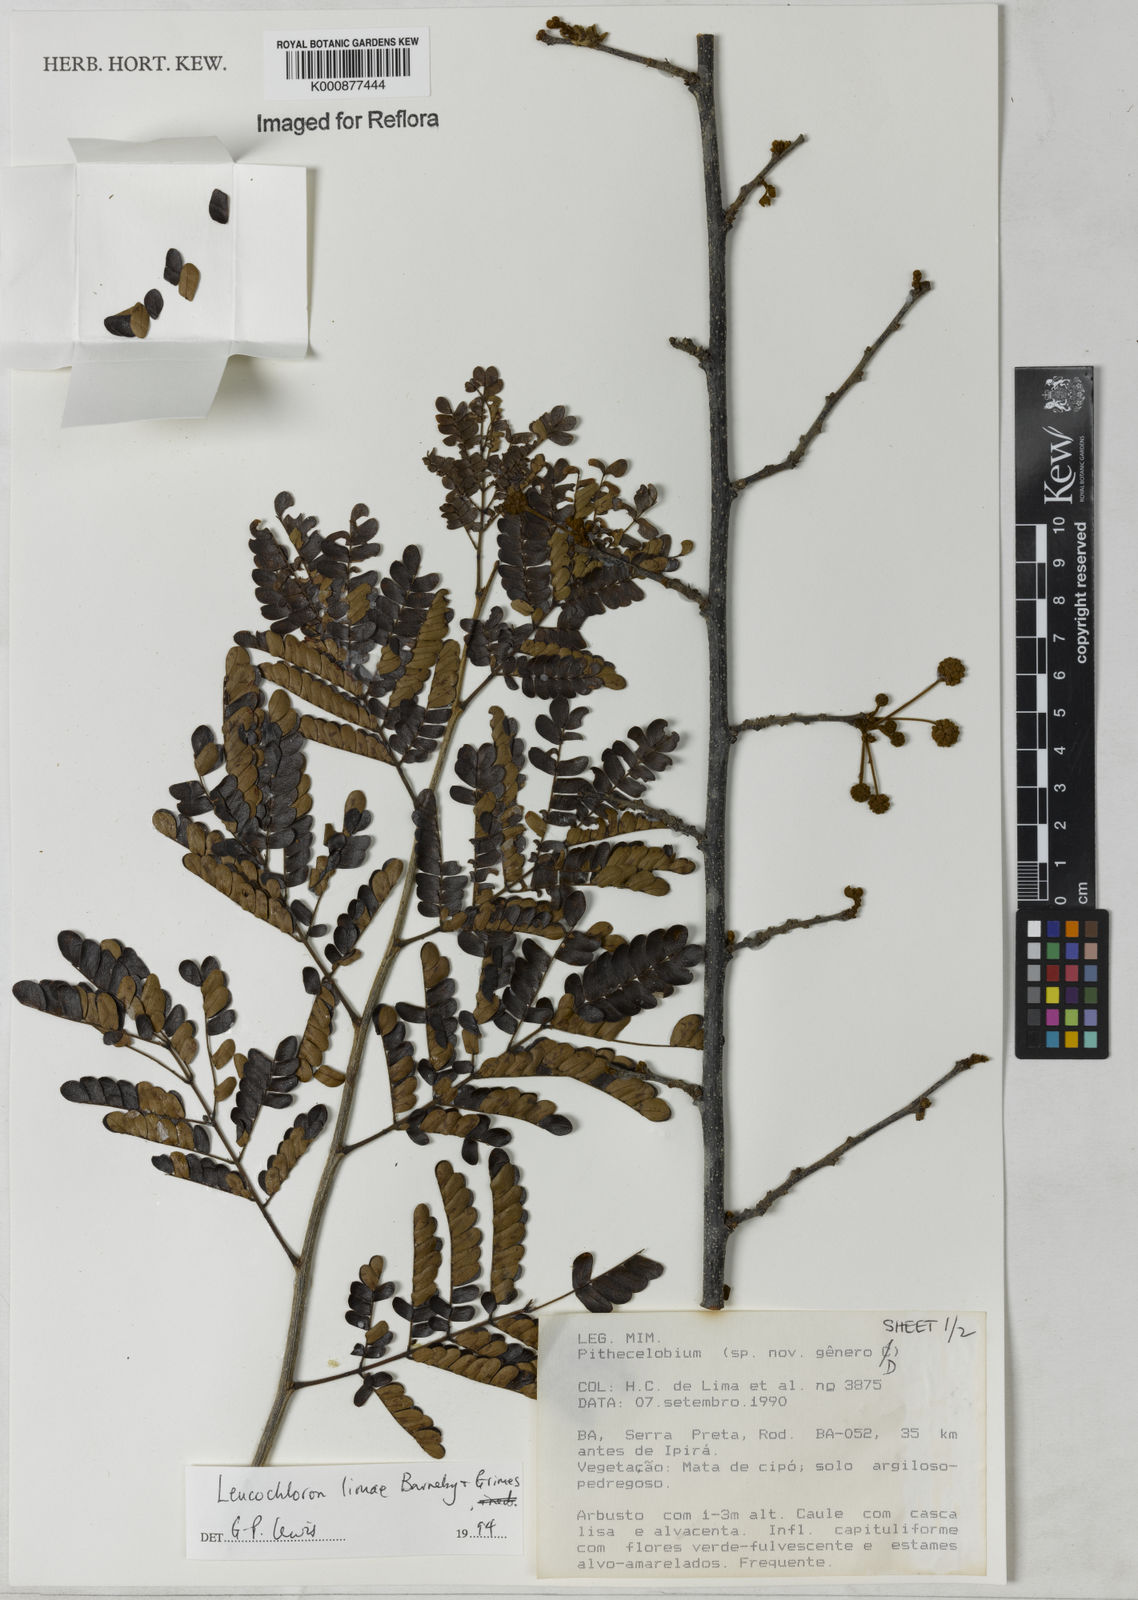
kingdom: Plantae
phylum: Tracheophyta
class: Magnoliopsida
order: Fabales
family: Fabaceae
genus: Leucochloron
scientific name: Leucochloron limae
